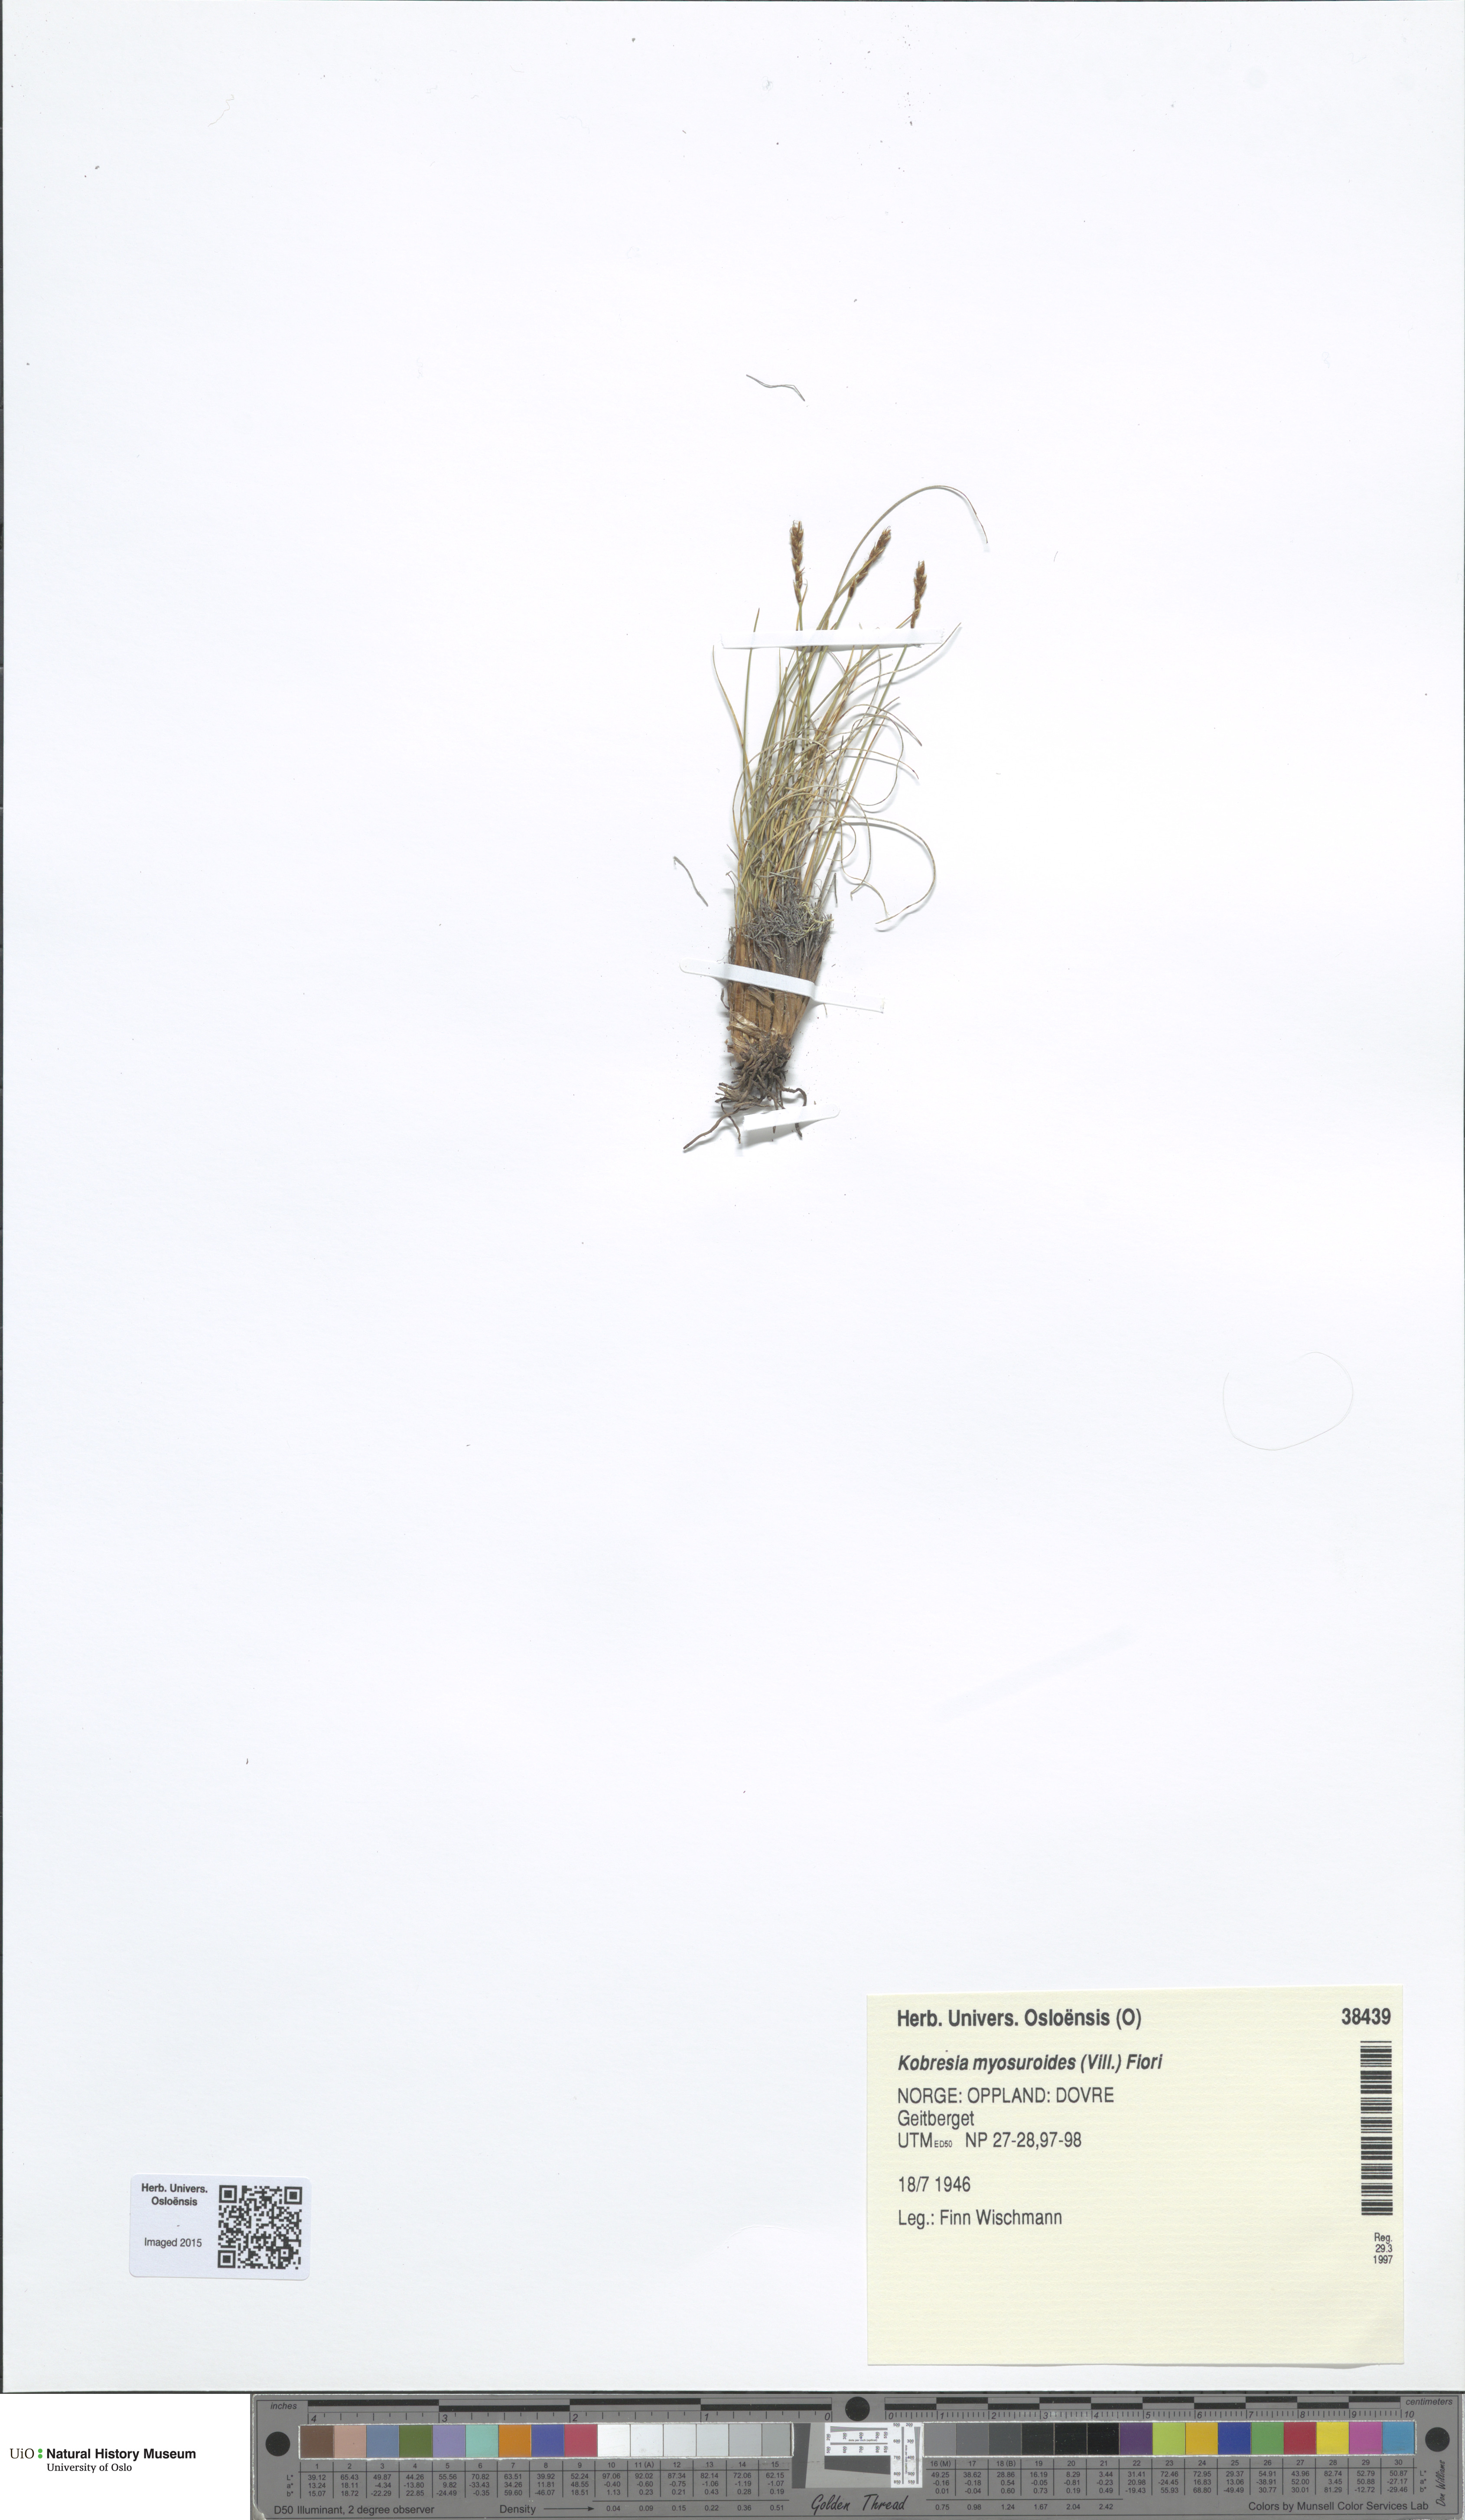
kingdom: Plantae
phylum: Tracheophyta
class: Liliopsida
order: Poales
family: Cyperaceae
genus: Carex
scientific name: Carex myosuroides
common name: Bellard's bog sedge
